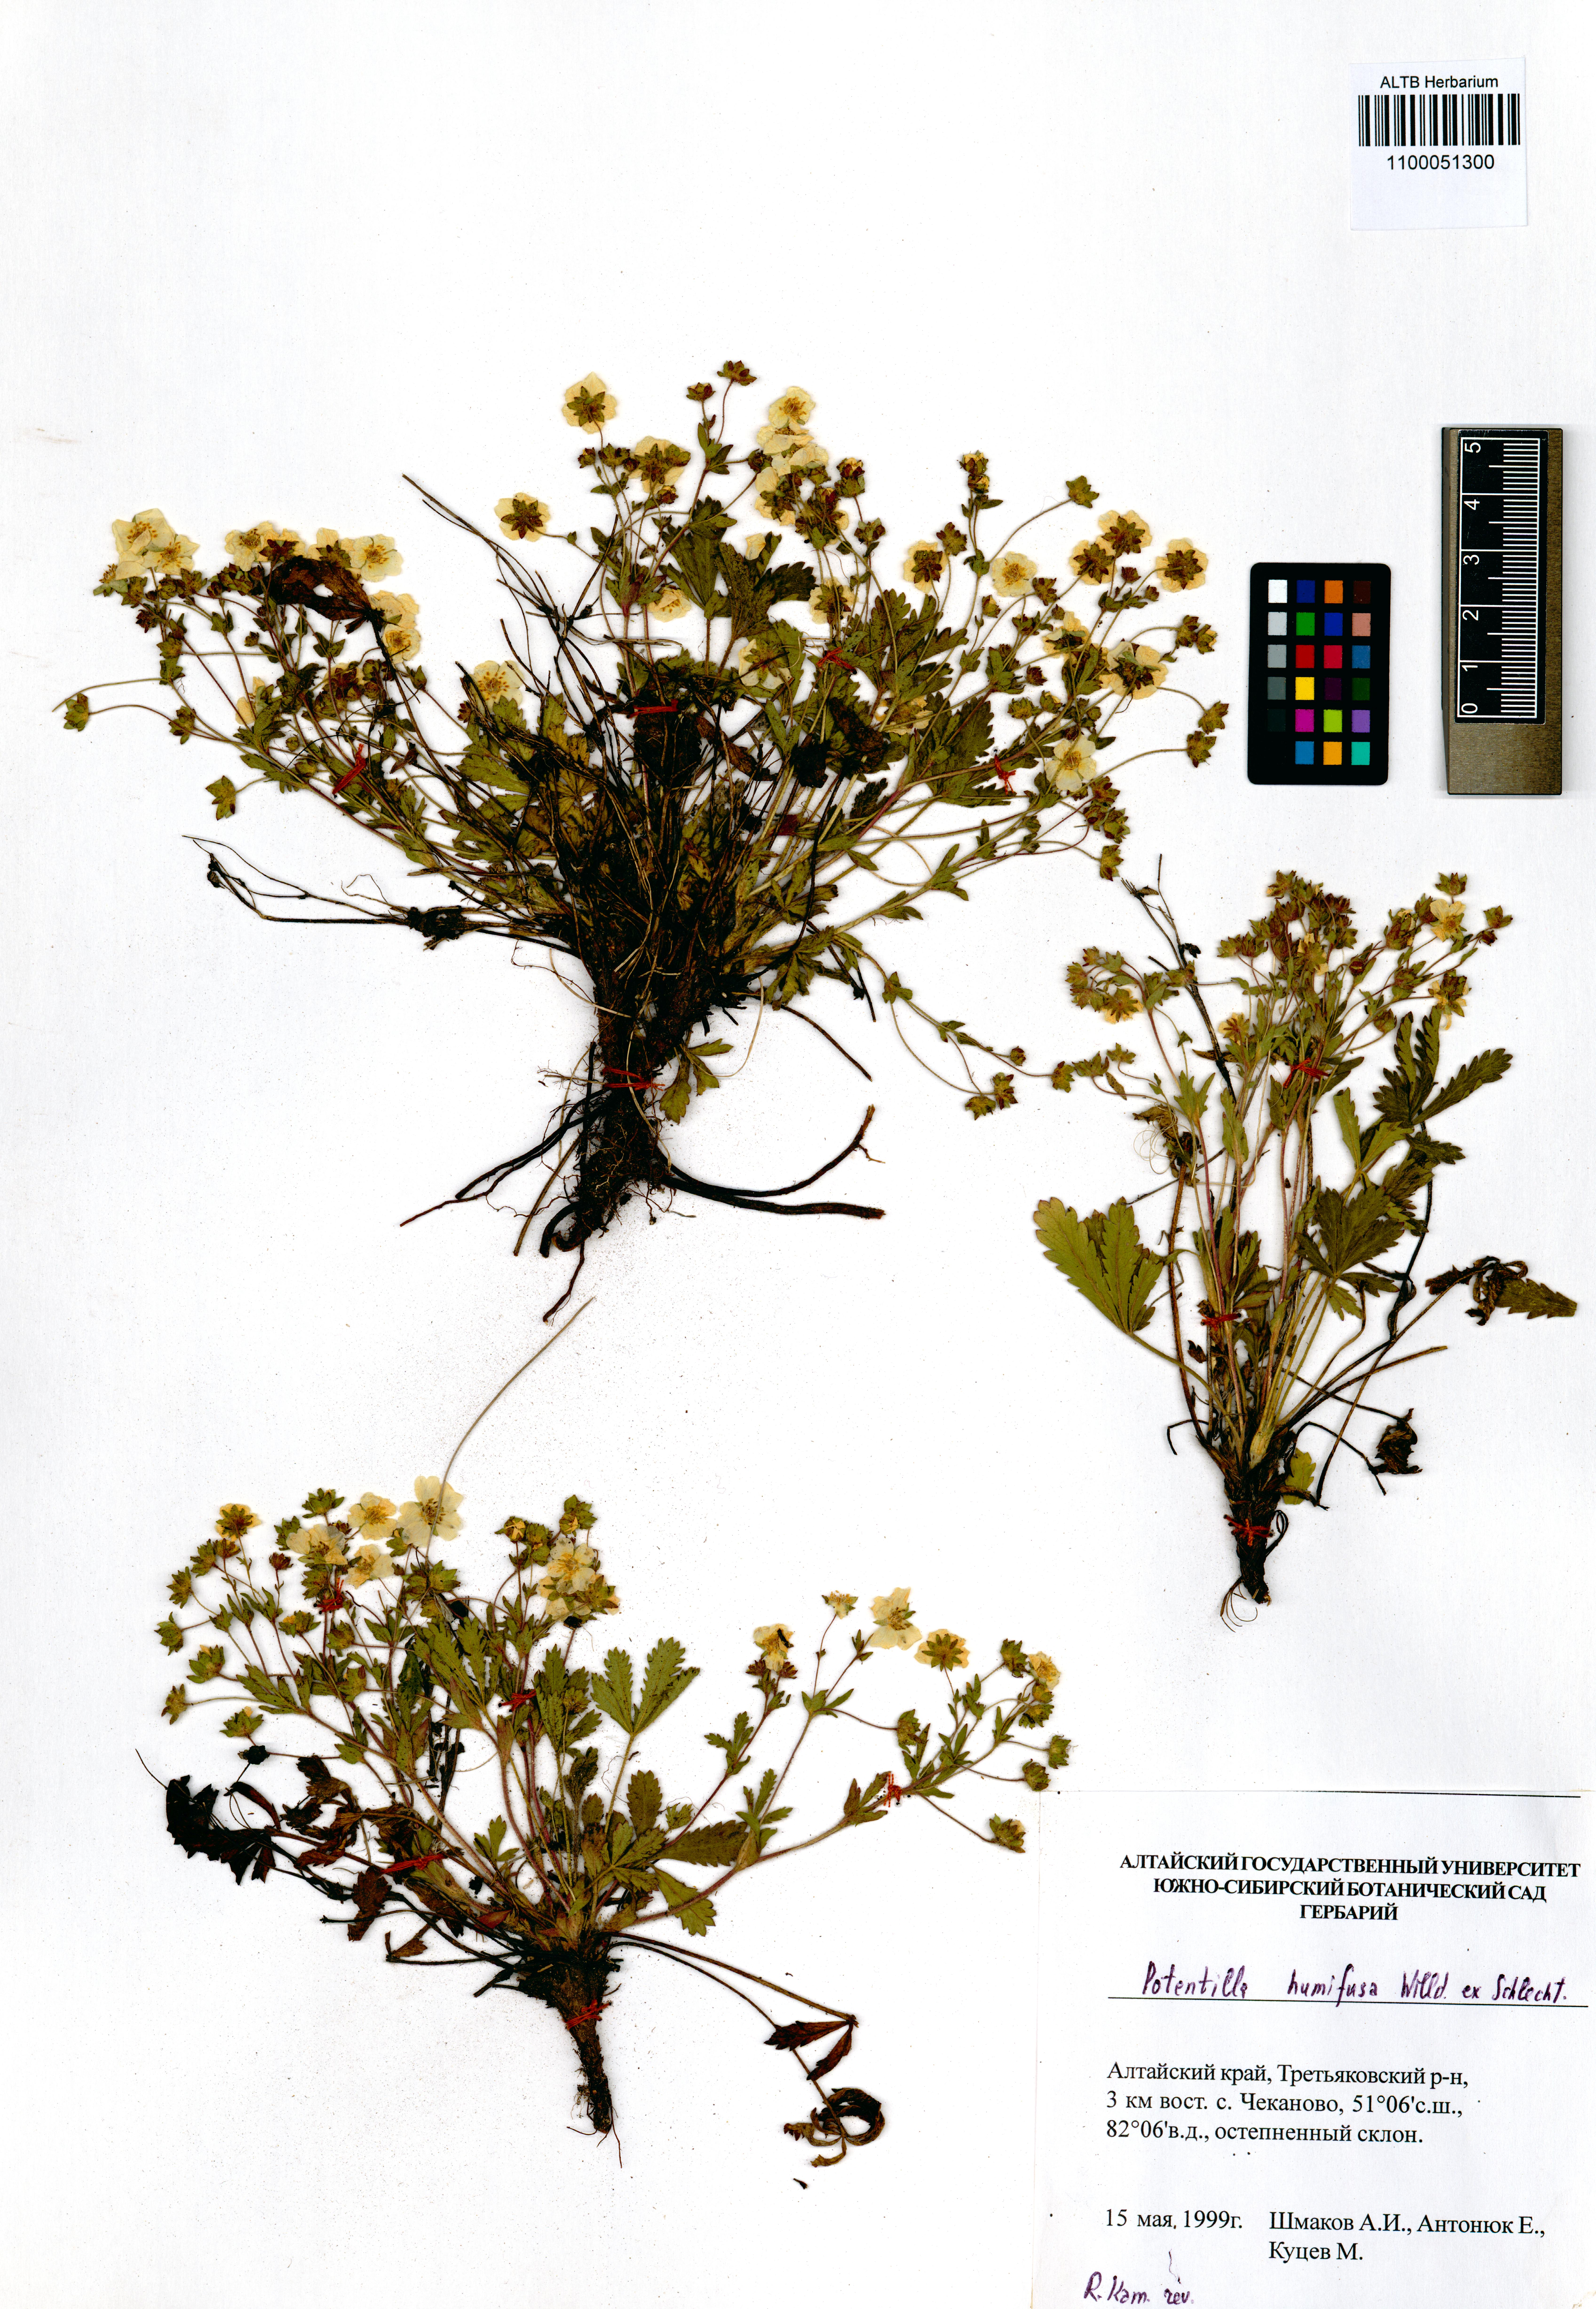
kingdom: Plantae
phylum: Tracheophyta
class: Magnoliopsida
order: Rosales
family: Rosaceae
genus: Potentilla
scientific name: Potentilla humifusa
